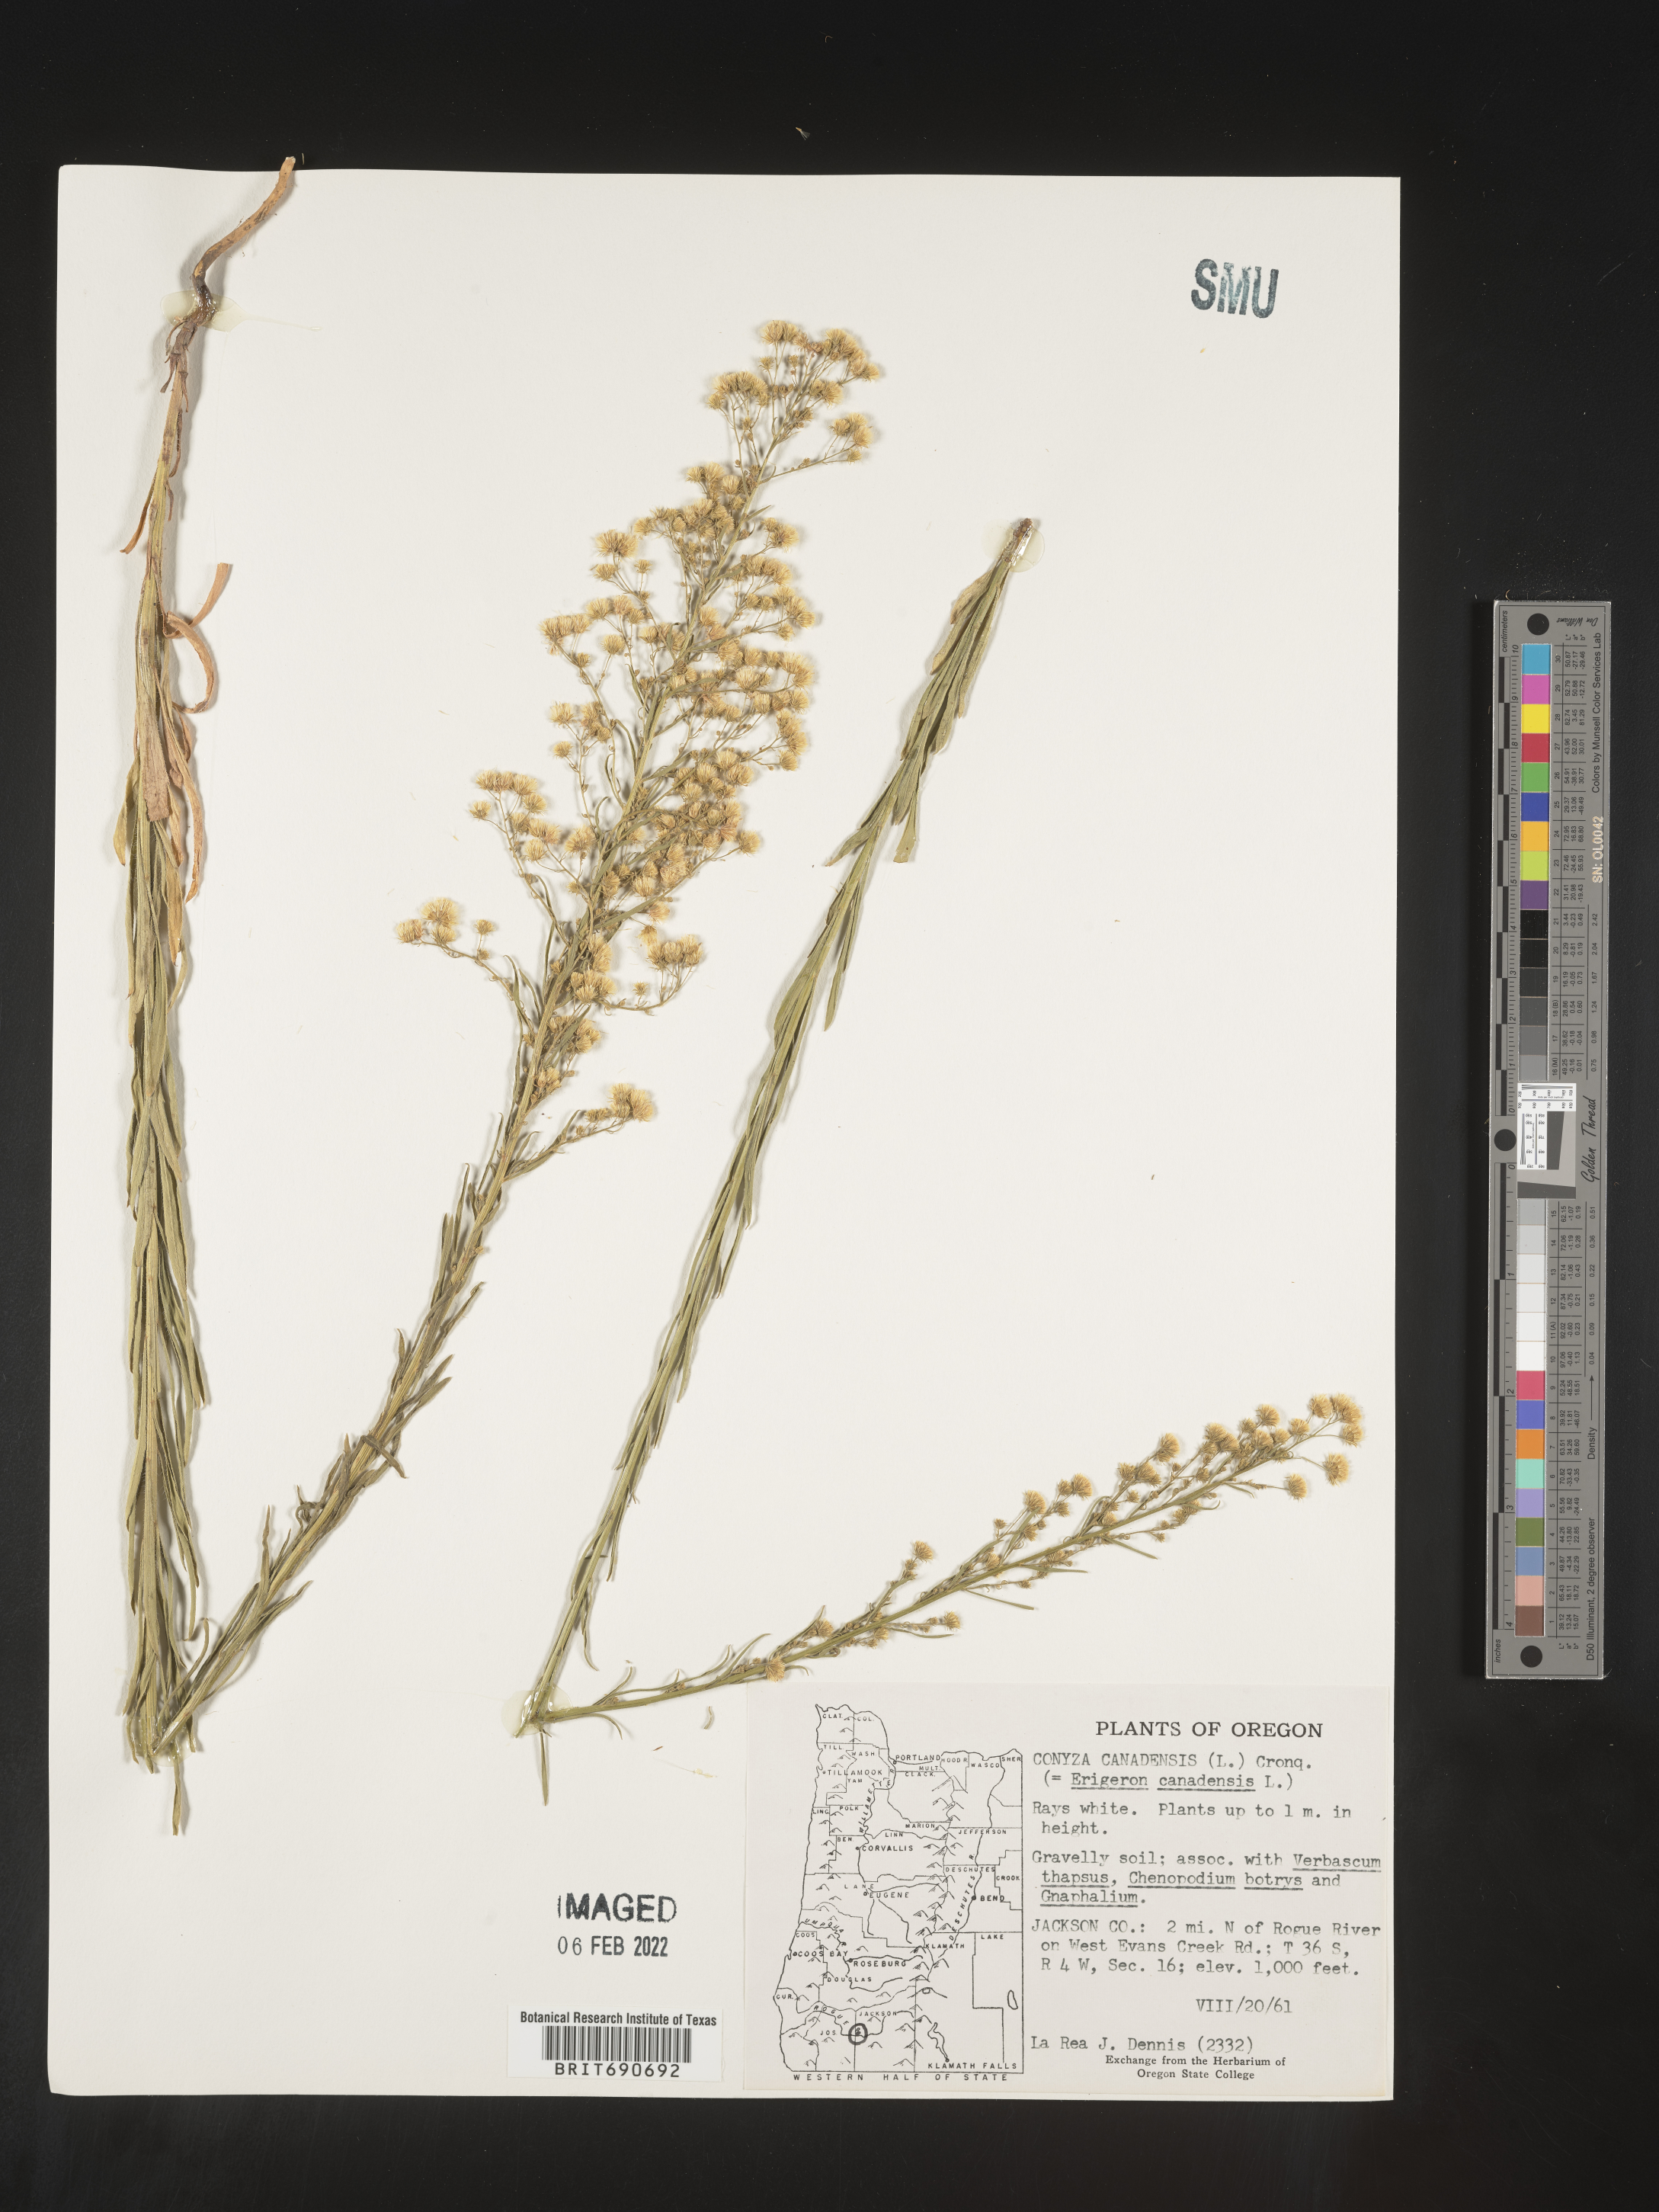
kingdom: Plantae
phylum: Tracheophyta
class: Magnoliopsida
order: Asterales
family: Asteraceae
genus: Erigeron
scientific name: Erigeron canadensis
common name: Canadian fleabane
